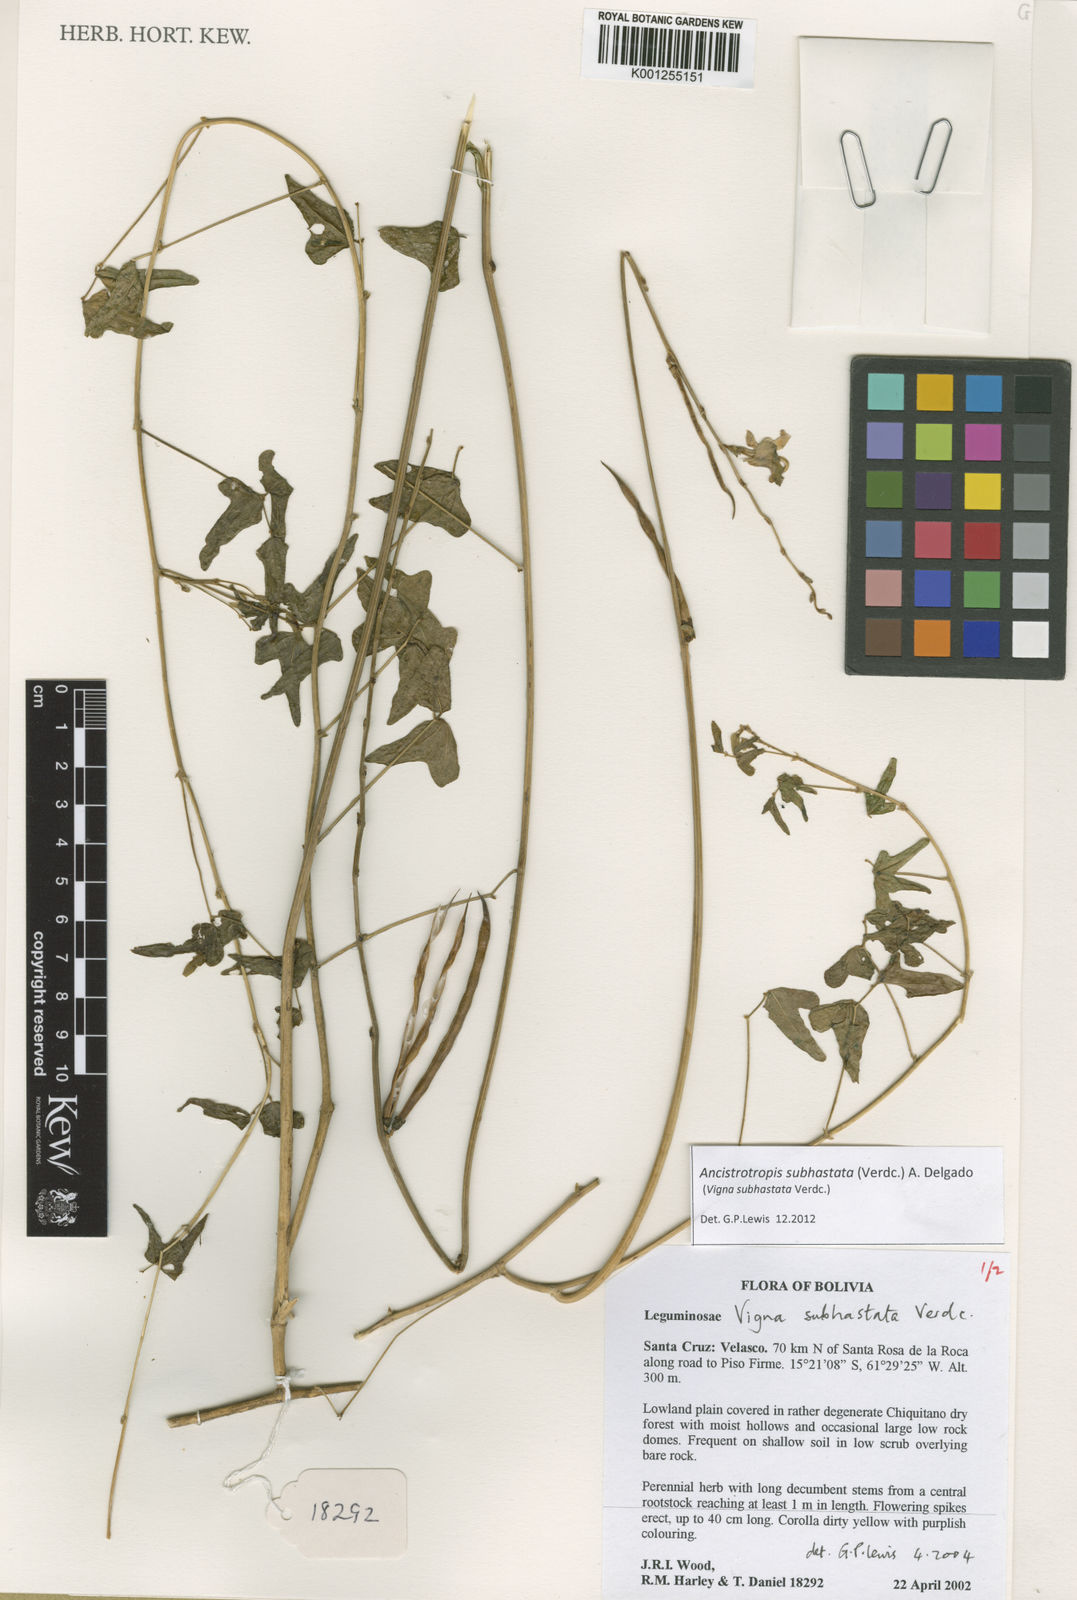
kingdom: Plantae
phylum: Tracheophyta
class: Magnoliopsida
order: Fabales
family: Fabaceae
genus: Ancistrotropis
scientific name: Ancistrotropis subhastata
